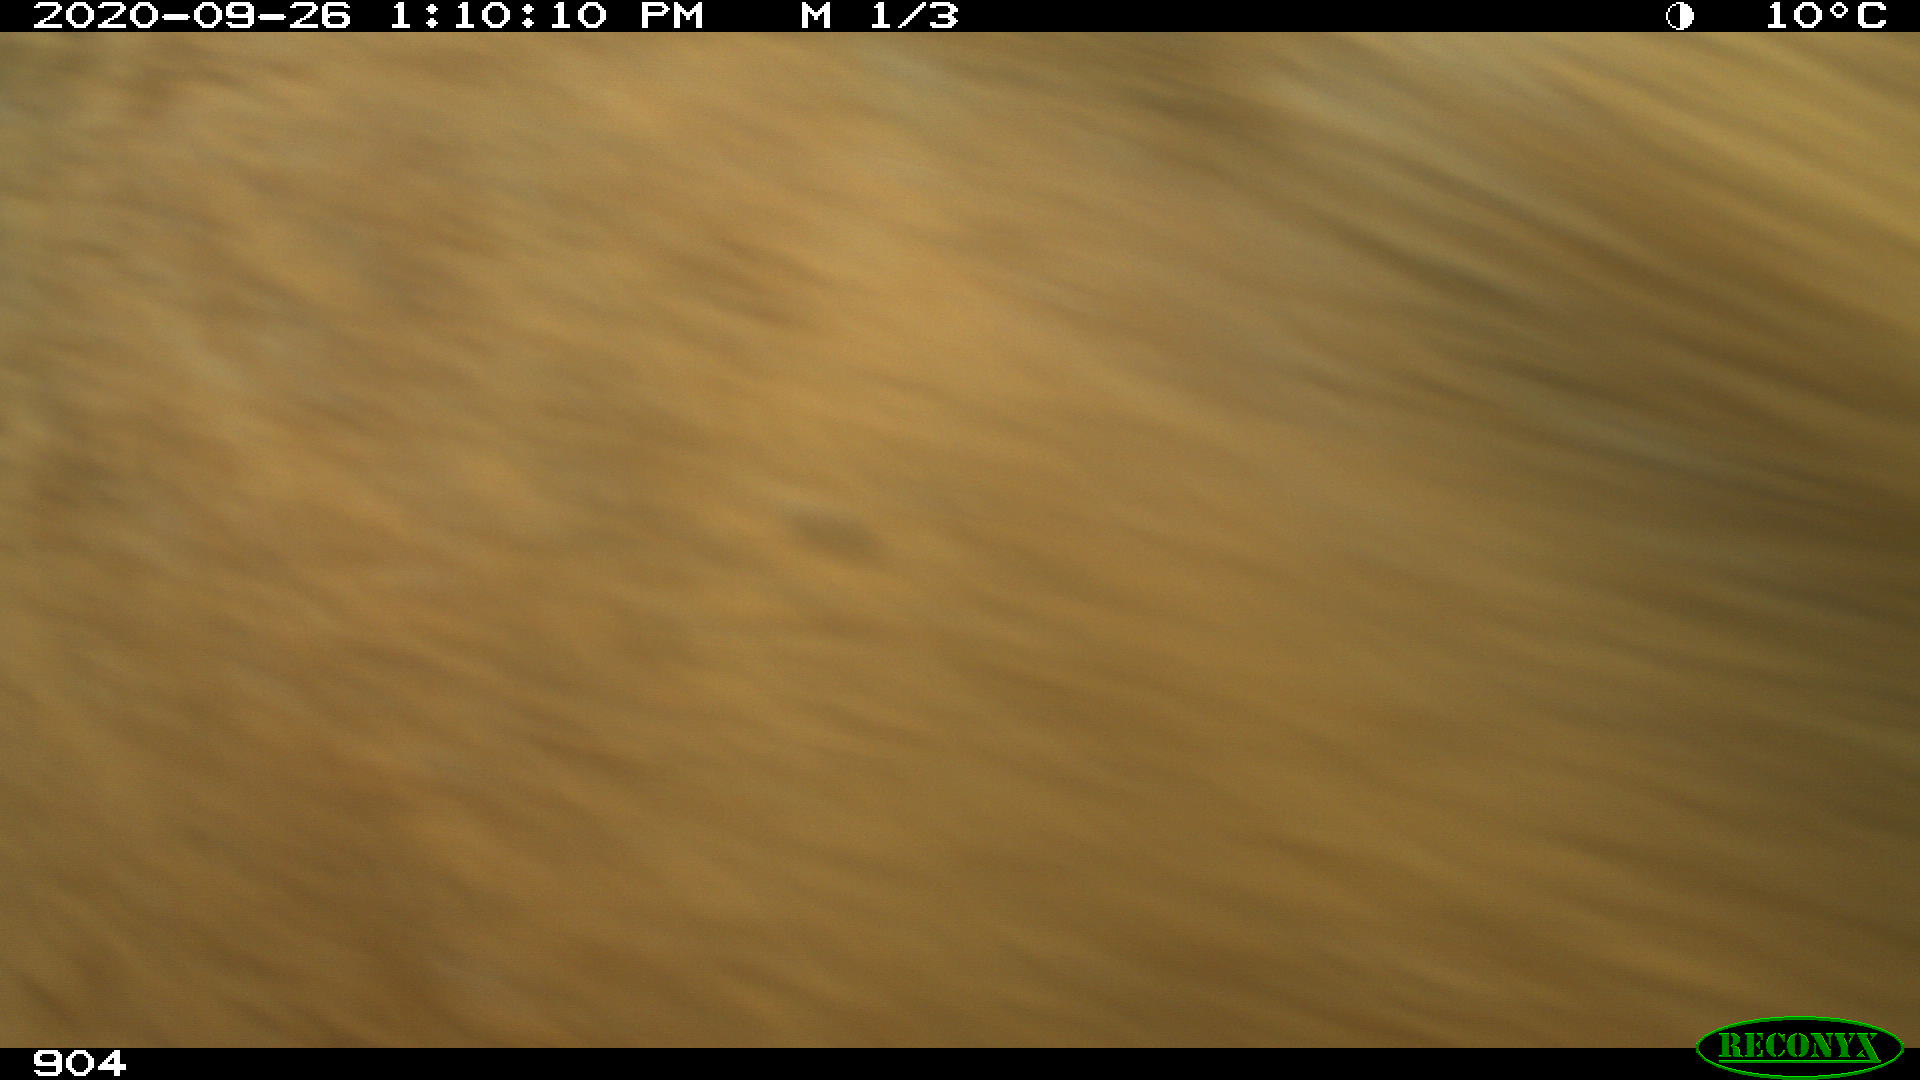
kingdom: Animalia
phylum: Chordata
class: Mammalia
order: Artiodactyla
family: Bovidae
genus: Bos
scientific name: Bos taurus
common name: Domesticated cattle
